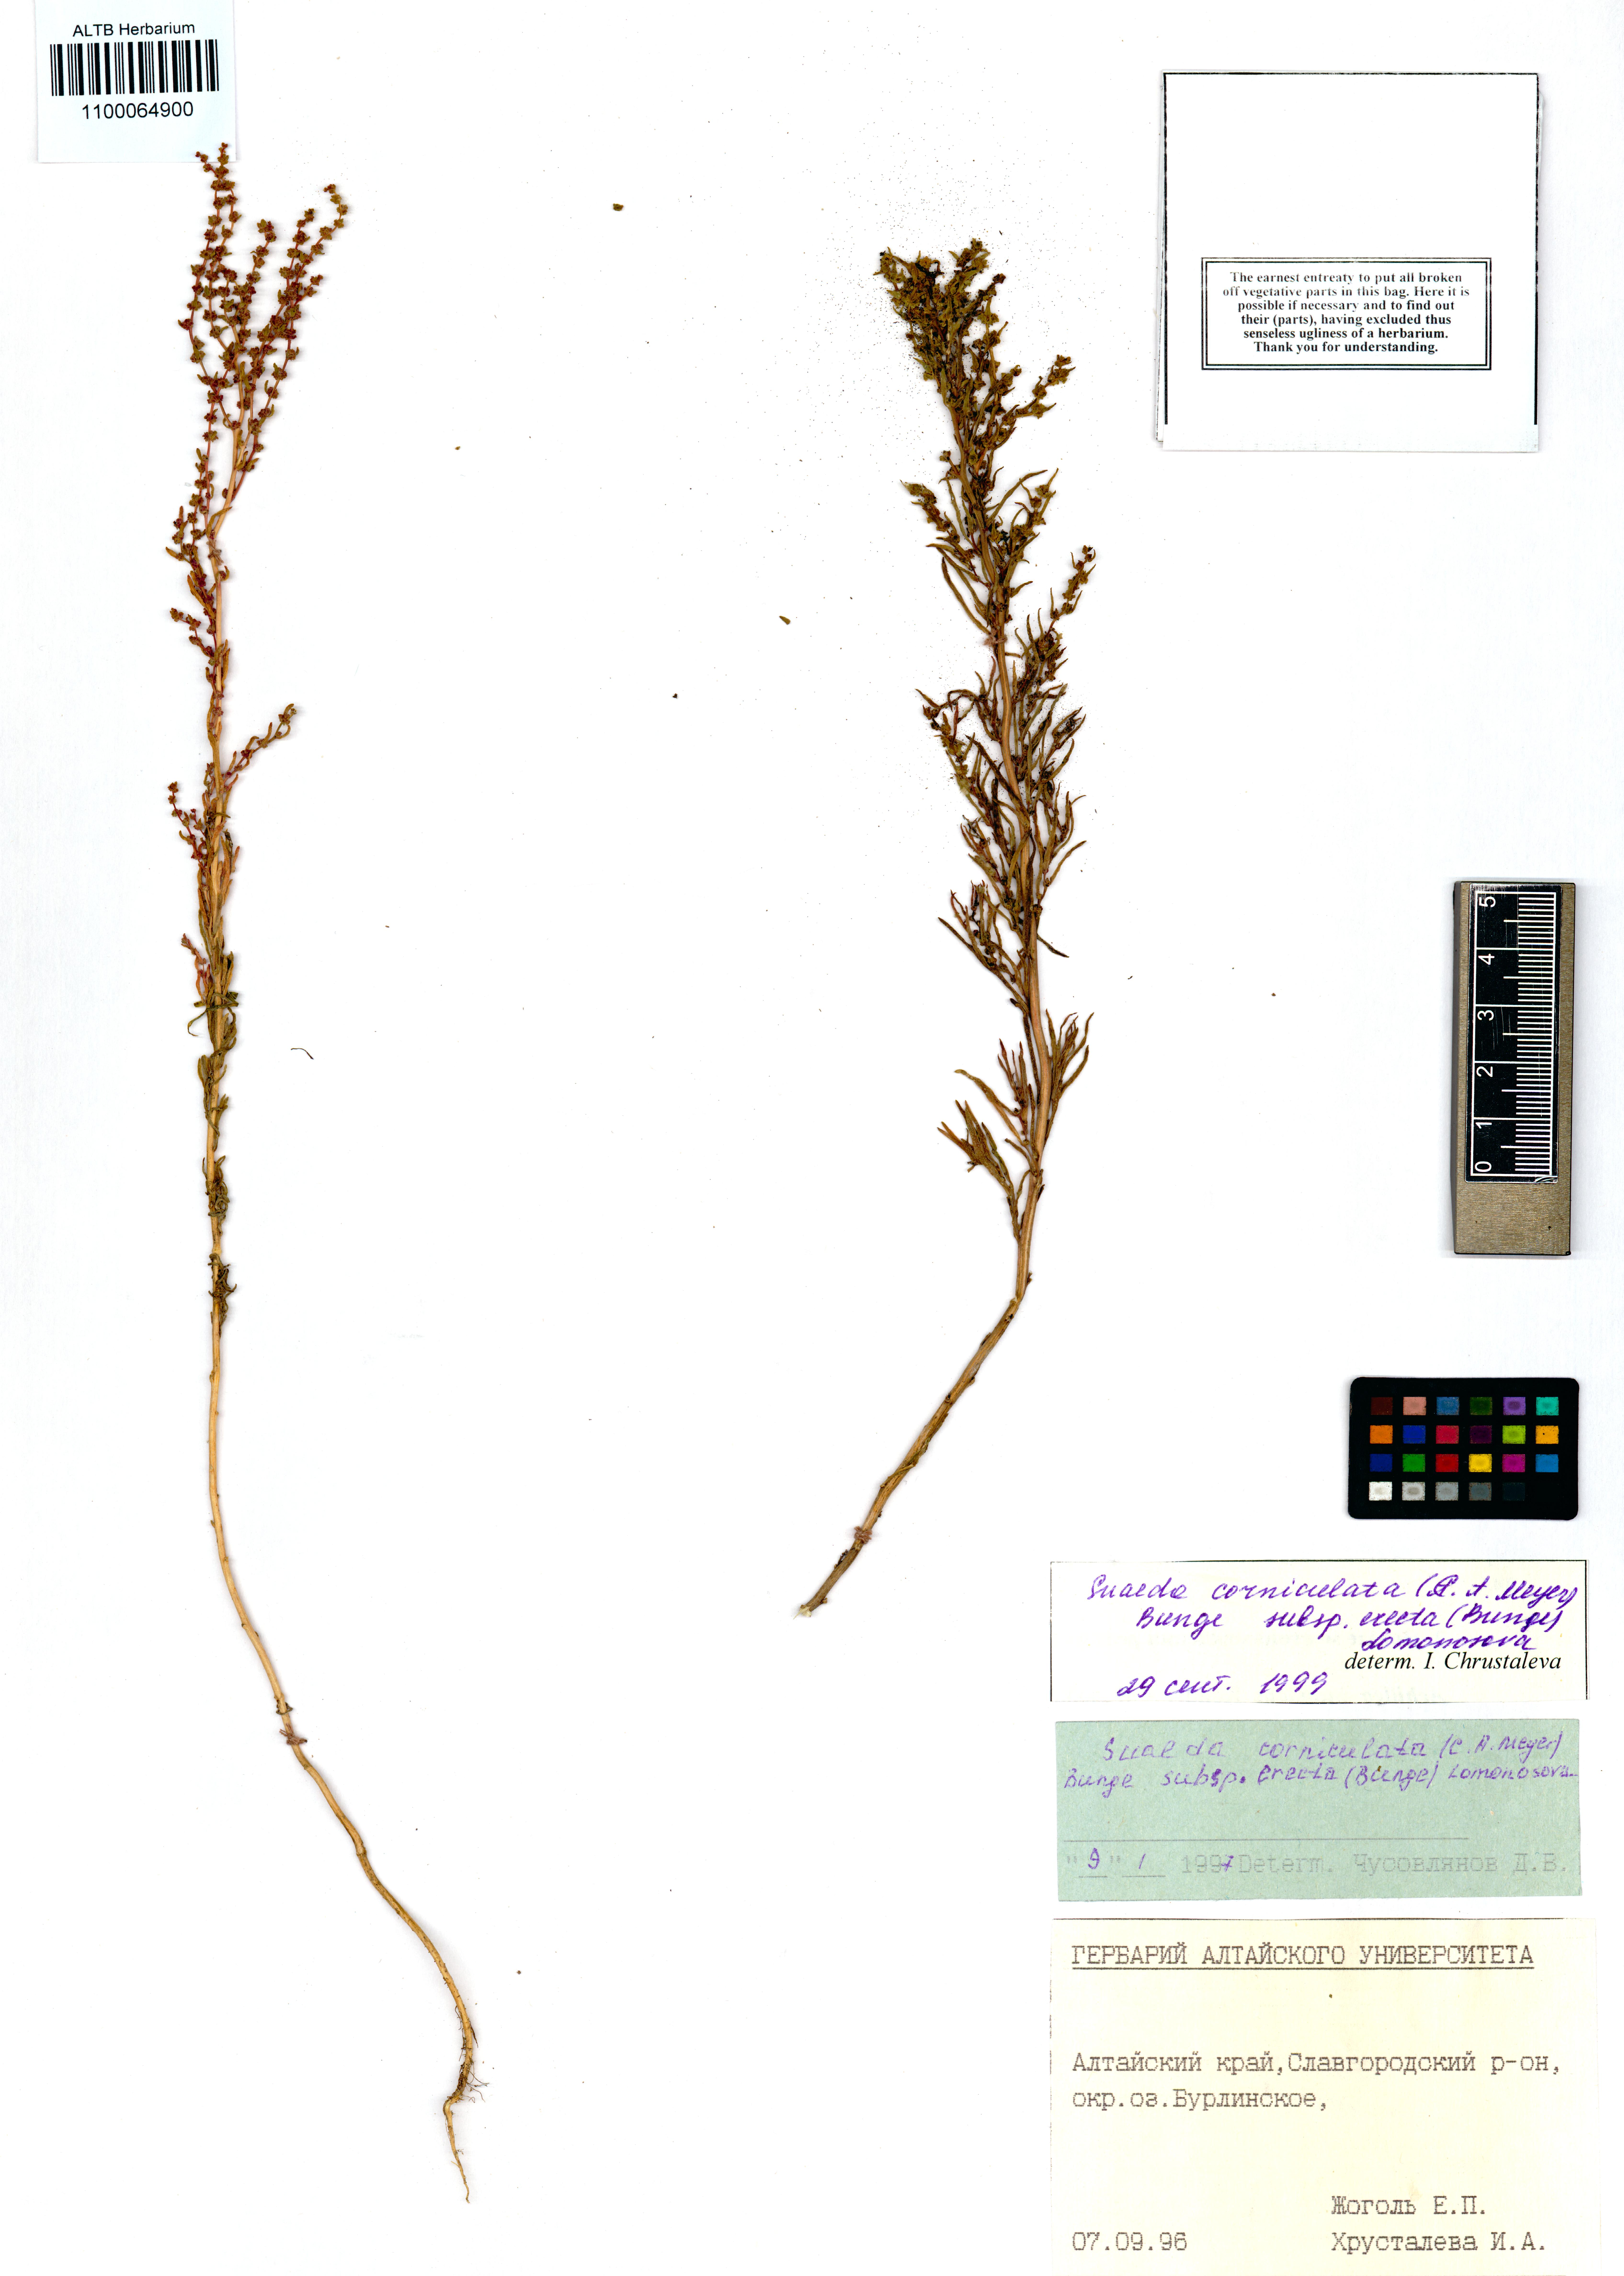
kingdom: Plantae
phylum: Tracheophyta
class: Magnoliopsida
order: Caryophyllales
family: Amaranthaceae
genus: Suaeda
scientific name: Suaeda corniculata
